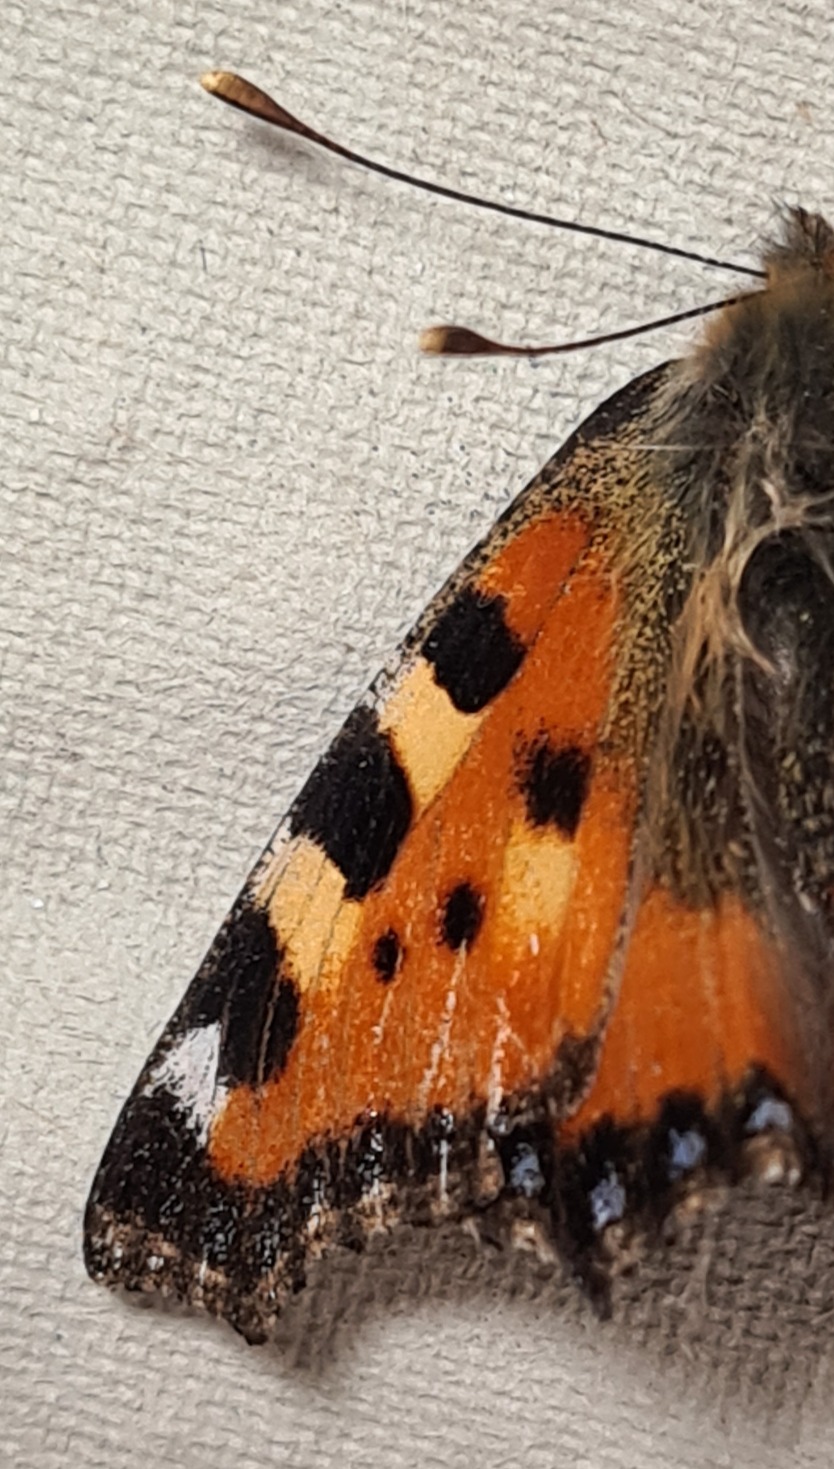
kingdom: Animalia
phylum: Arthropoda
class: Insecta
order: Lepidoptera
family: Nymphalidae
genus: Aglais
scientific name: Aglais urticae
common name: Nældens takvinge
